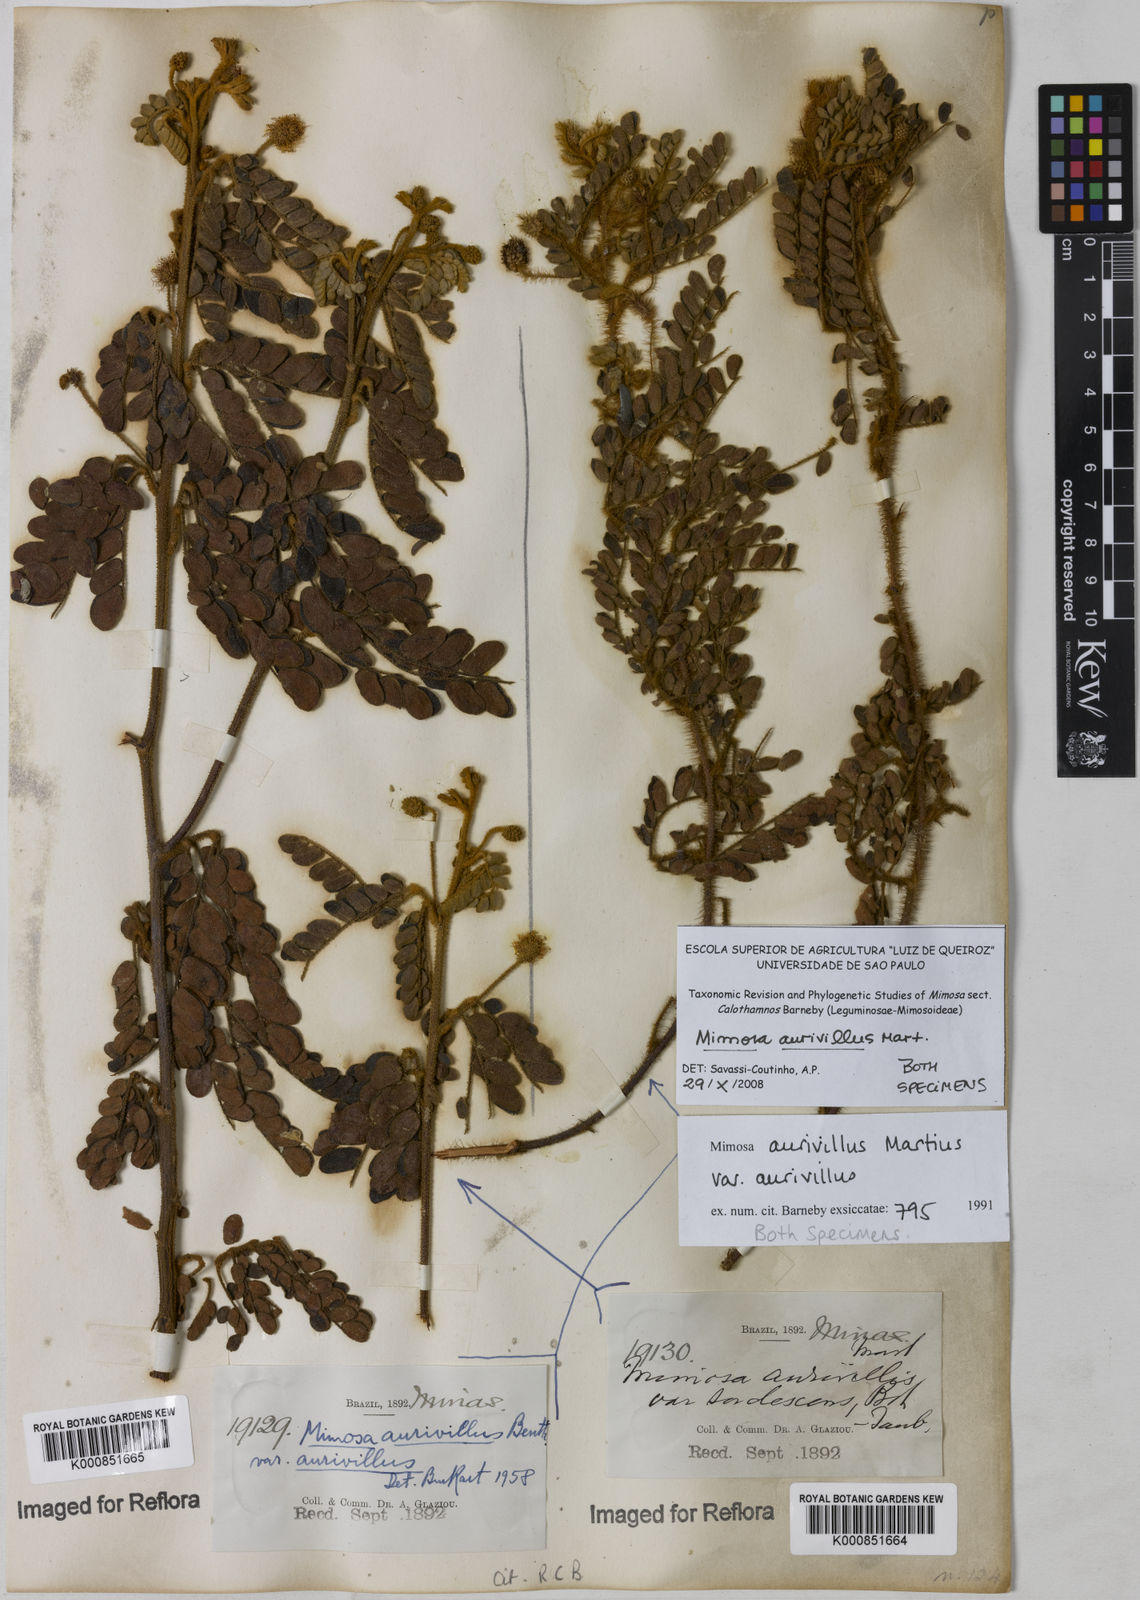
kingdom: Plantae
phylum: Tracheophyta
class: Magnoliopsida
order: Fabales
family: Fabaceae
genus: Mimosa
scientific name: Mimosa aurivillus
